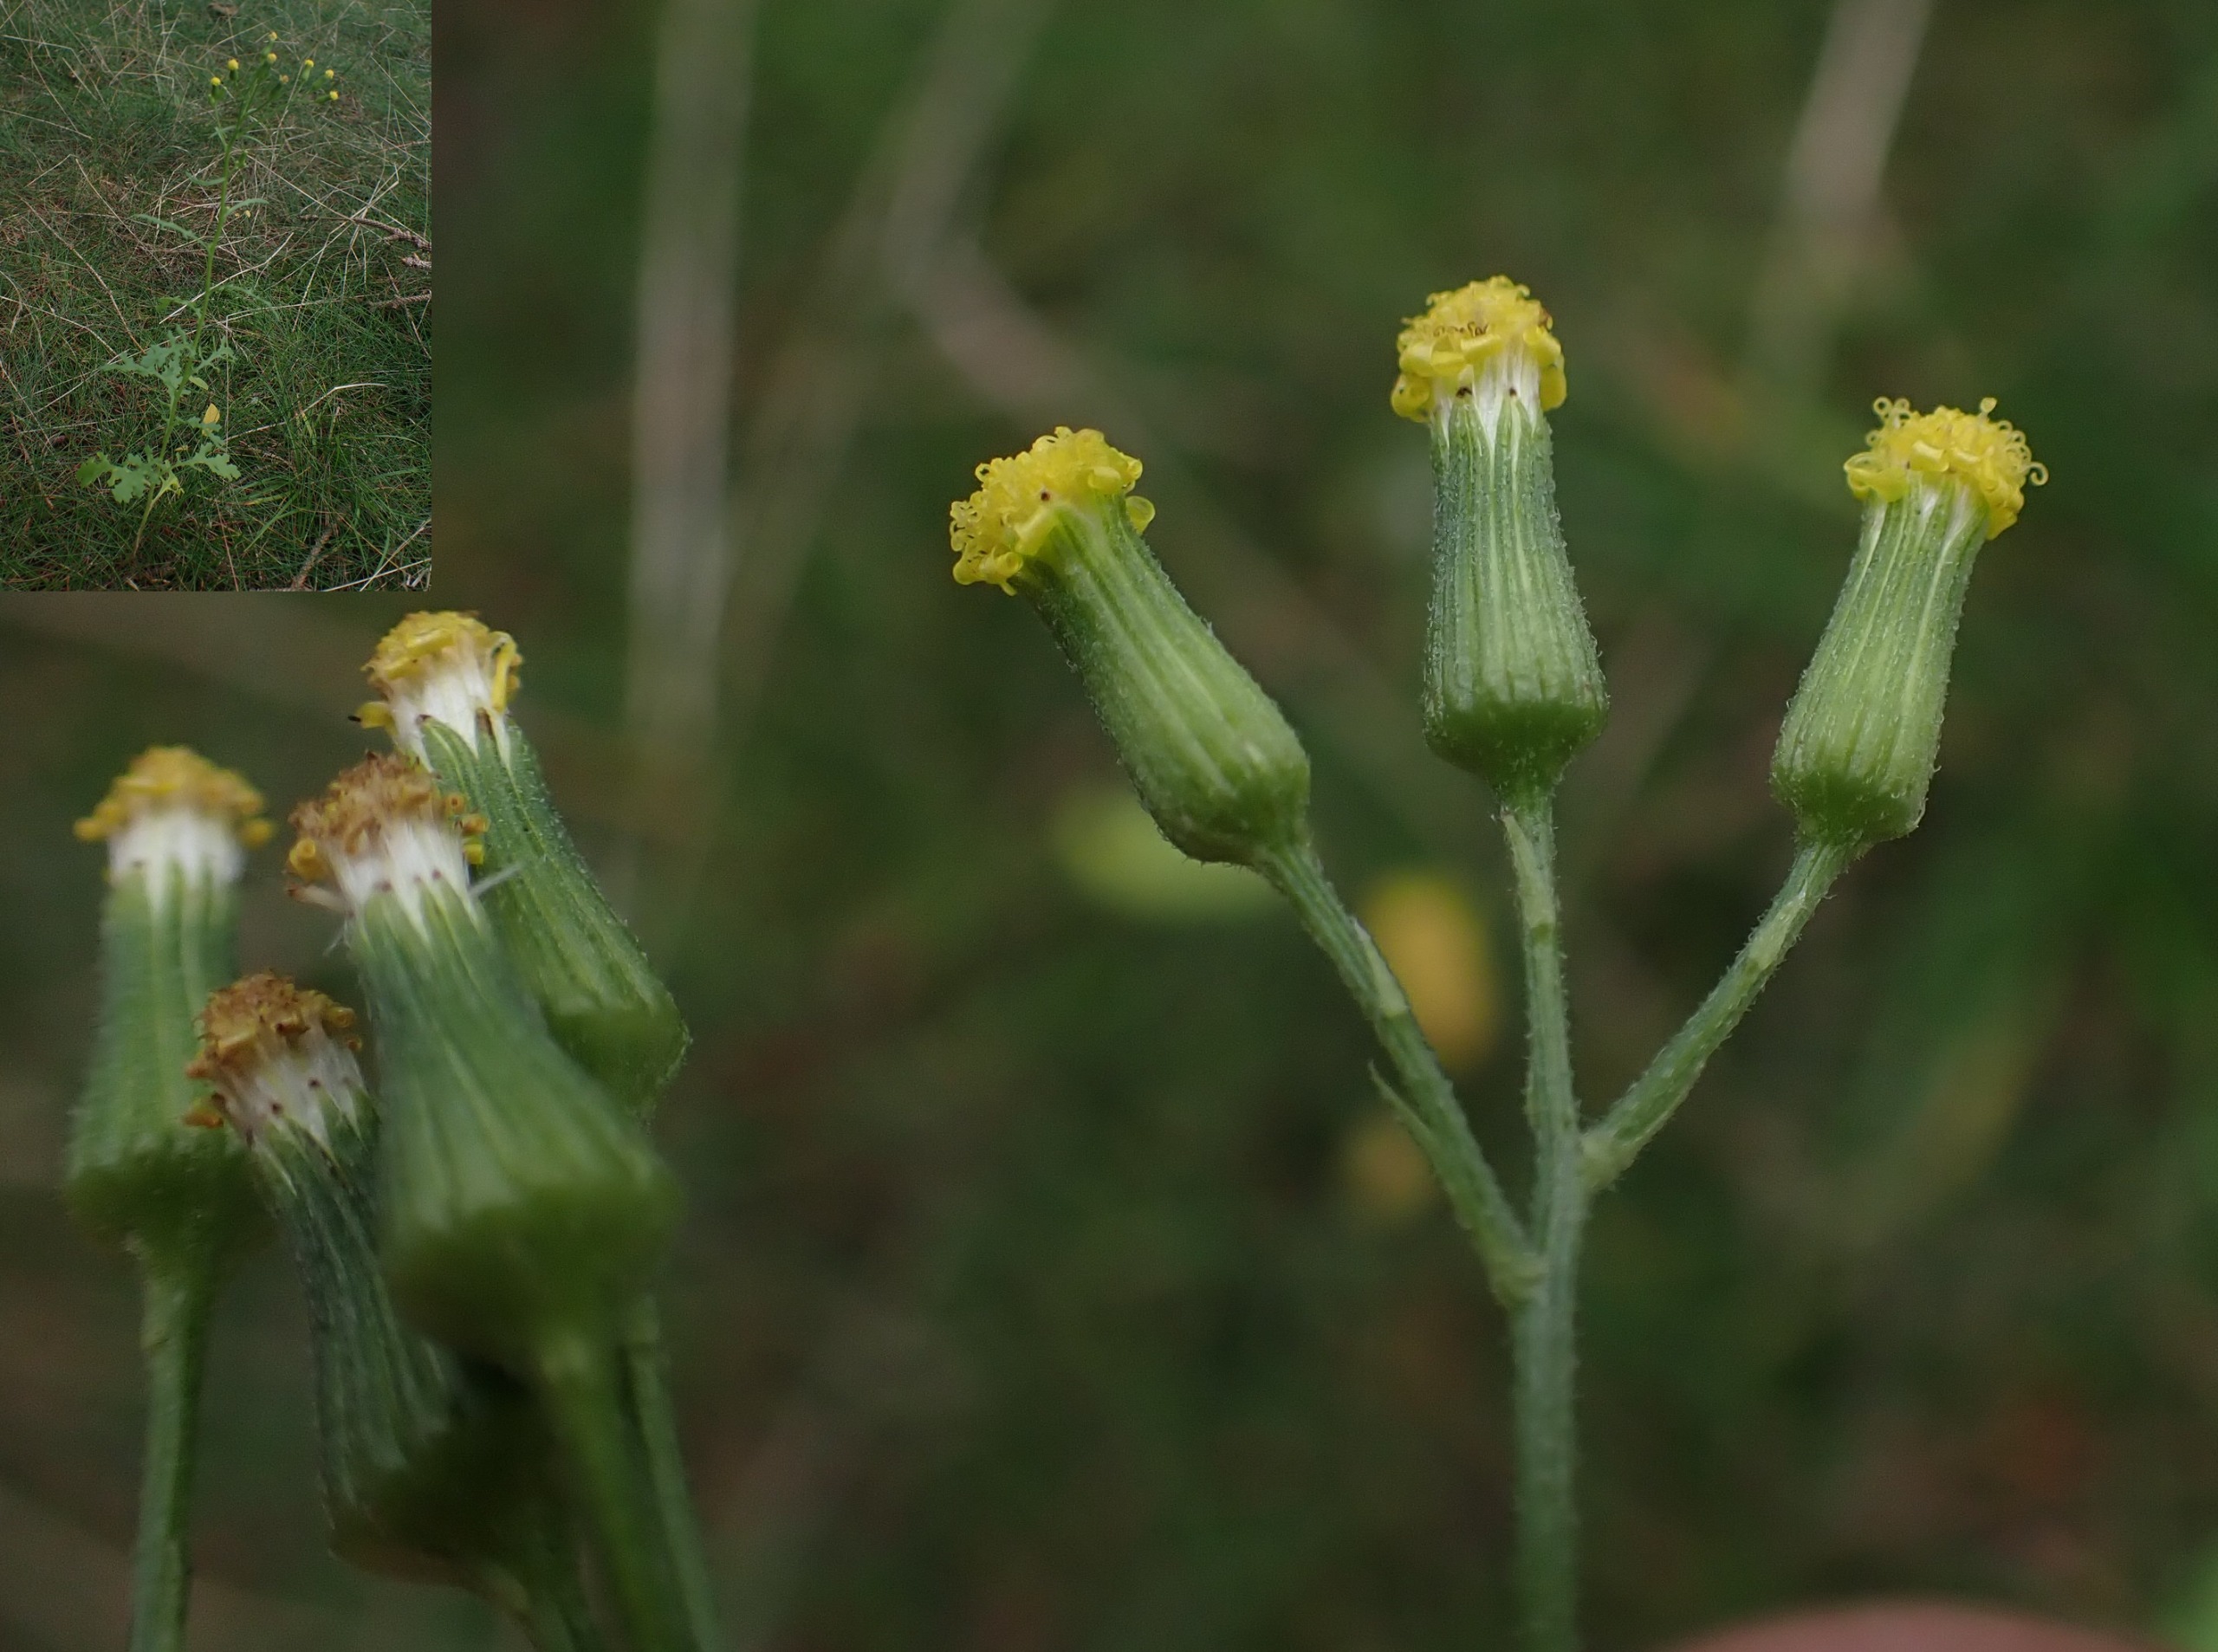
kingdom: Plantae
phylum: Tracheophyta
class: Magnoliopsida
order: Asterales
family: Asteraceae
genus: Senecio
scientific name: Senecio sylvaticus
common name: Skov-brandbæger
